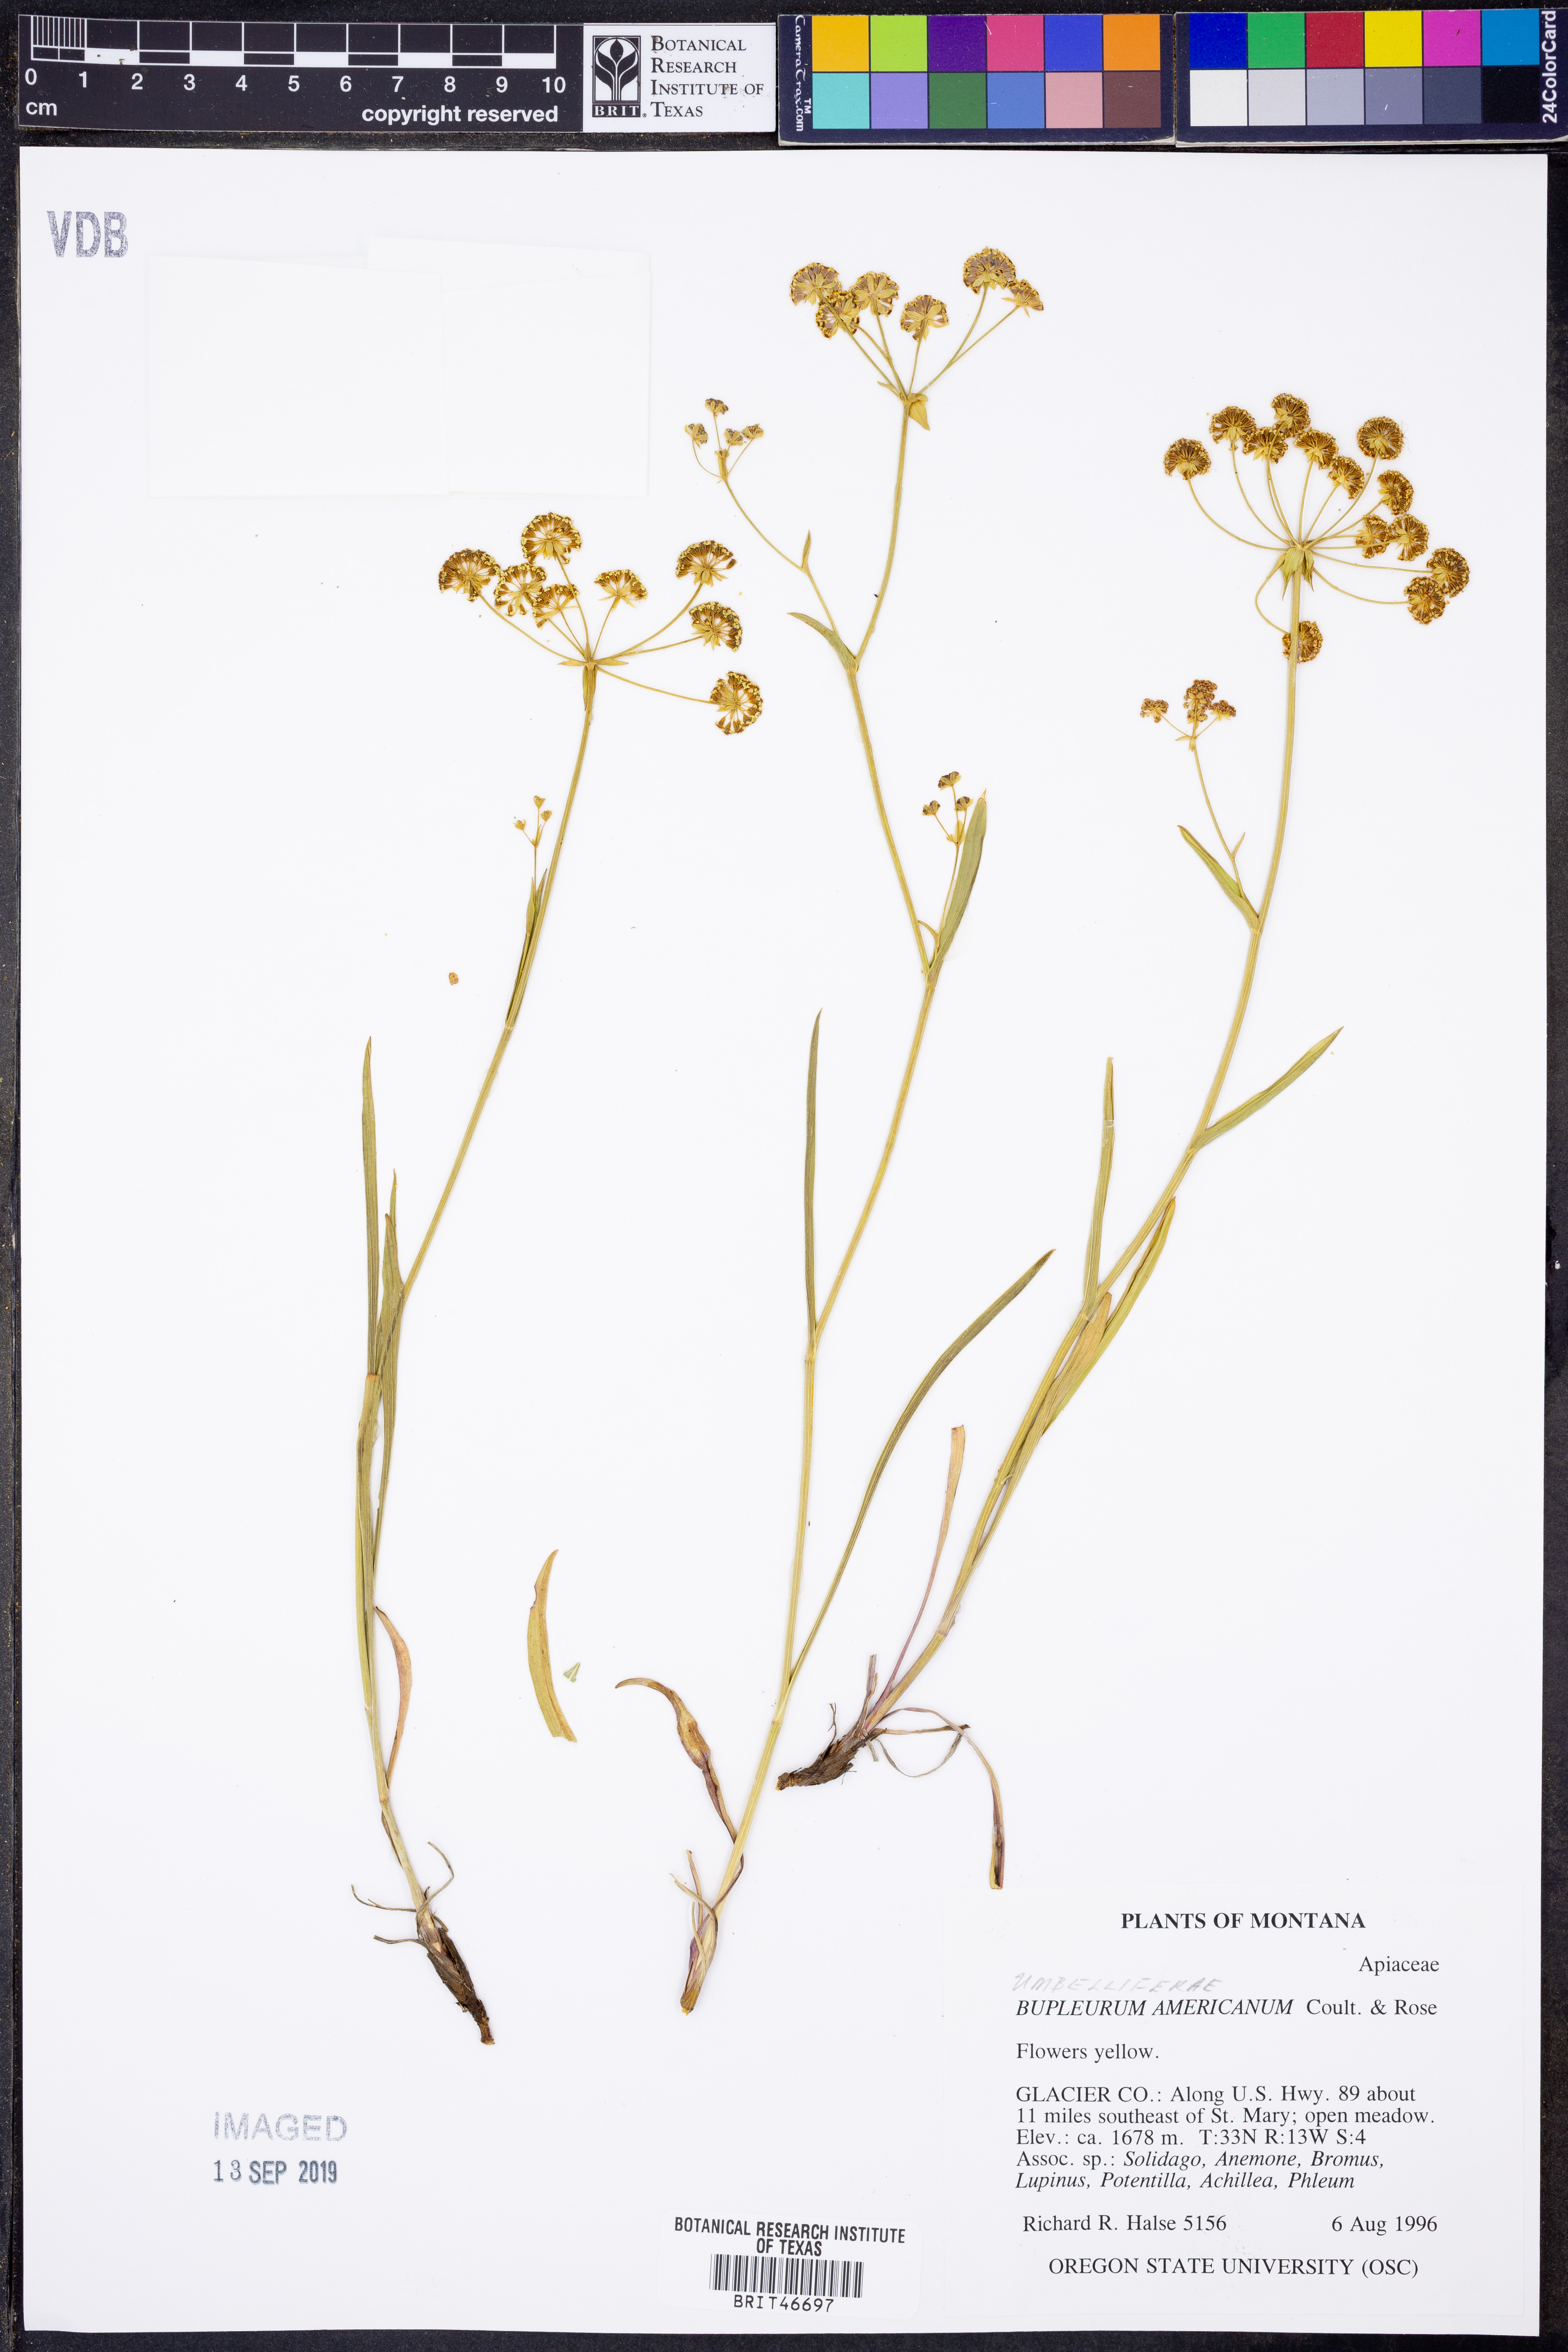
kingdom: Plantae
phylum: Tracheophyta
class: Magnoliopsida
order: Apiales
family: Apiaceae
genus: Bupleurum
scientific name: Bupleurum americanum
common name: American thoroughwax
